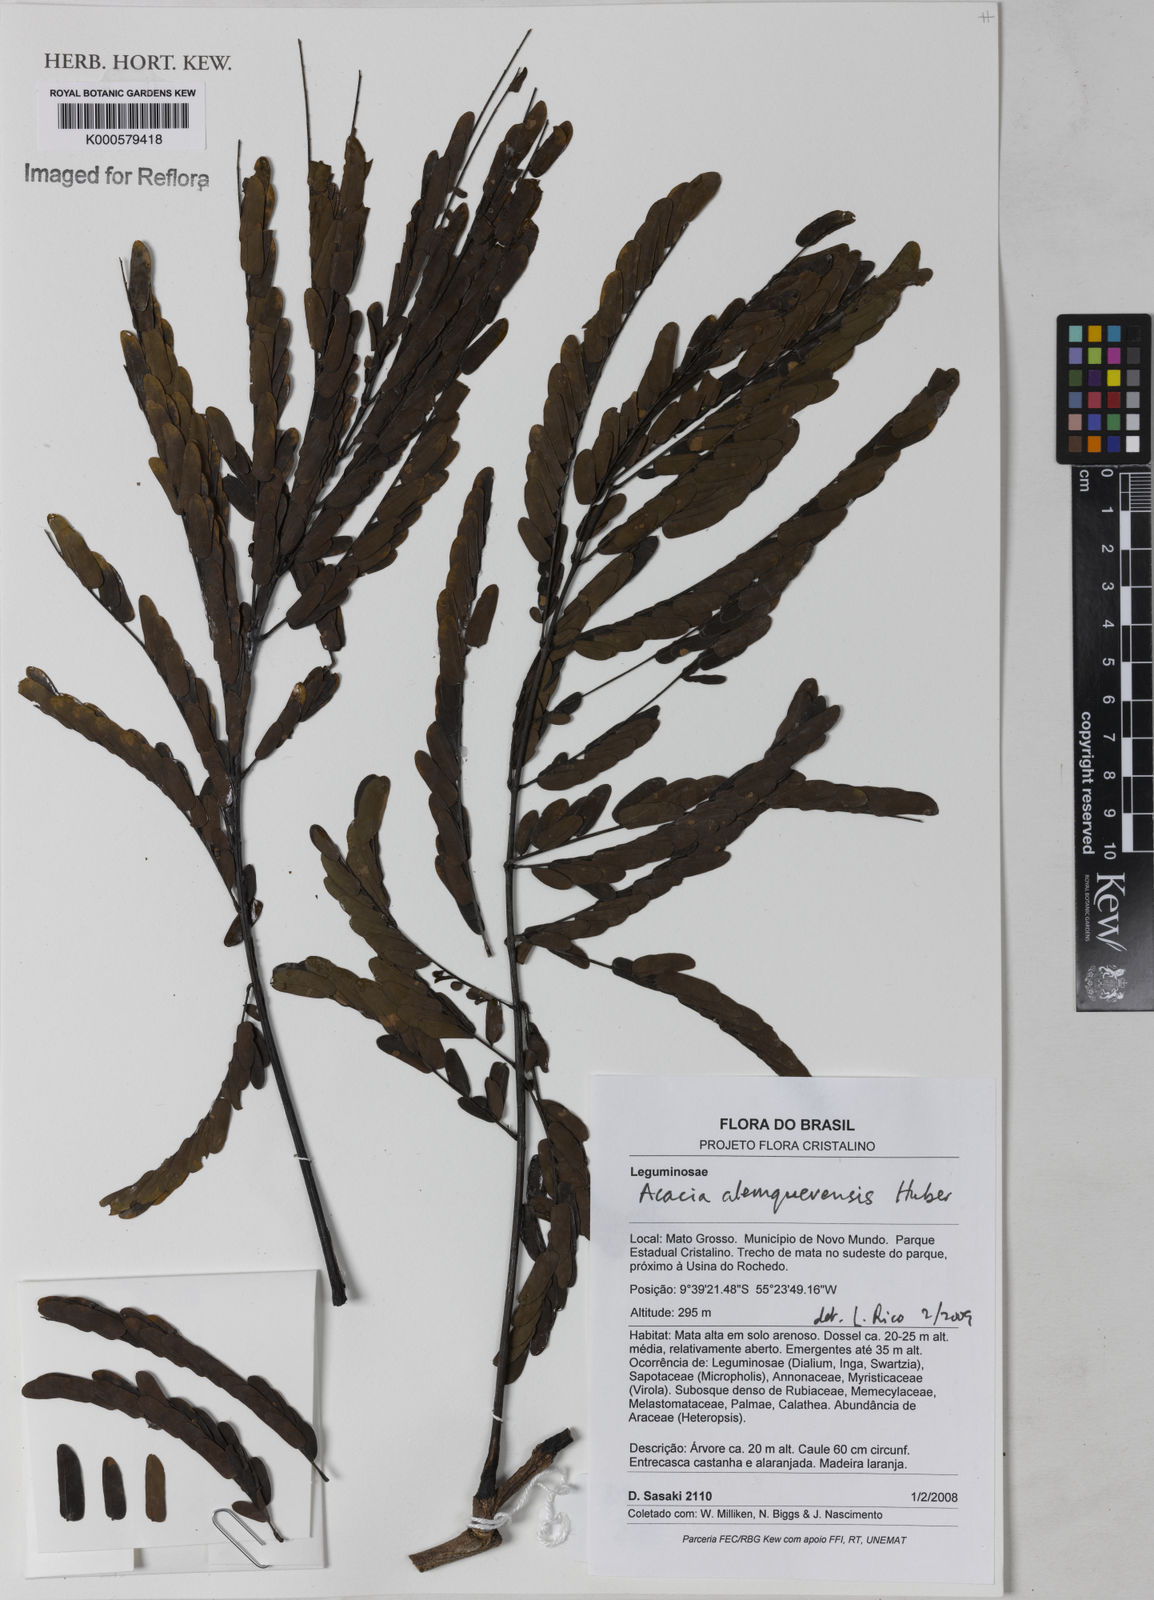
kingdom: Plantae
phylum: Tracheophyta
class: Magnoliopsida
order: Fabales
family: Fabaceae
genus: Acacia
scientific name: Acacia
